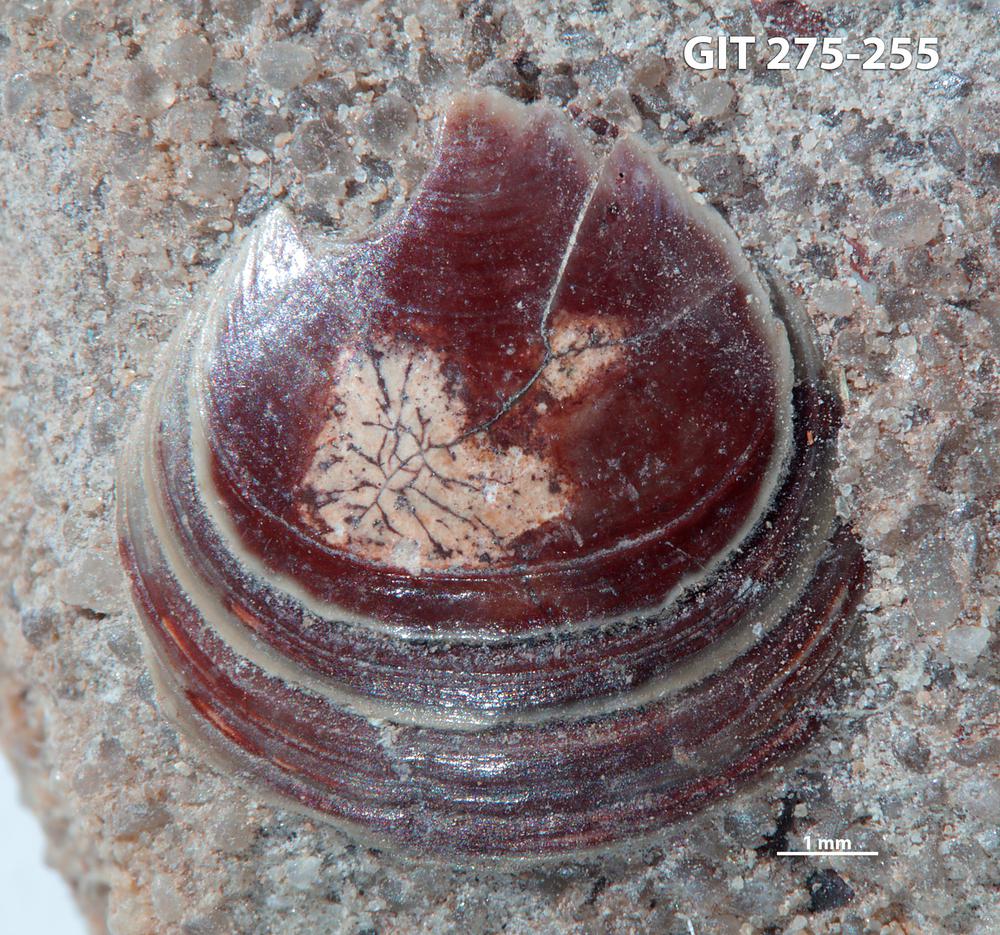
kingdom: Animalia
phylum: Brachiopoda
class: Lingulata
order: Lingulida
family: Obolidae
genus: Obolus
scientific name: Obolus Ungula convexa
